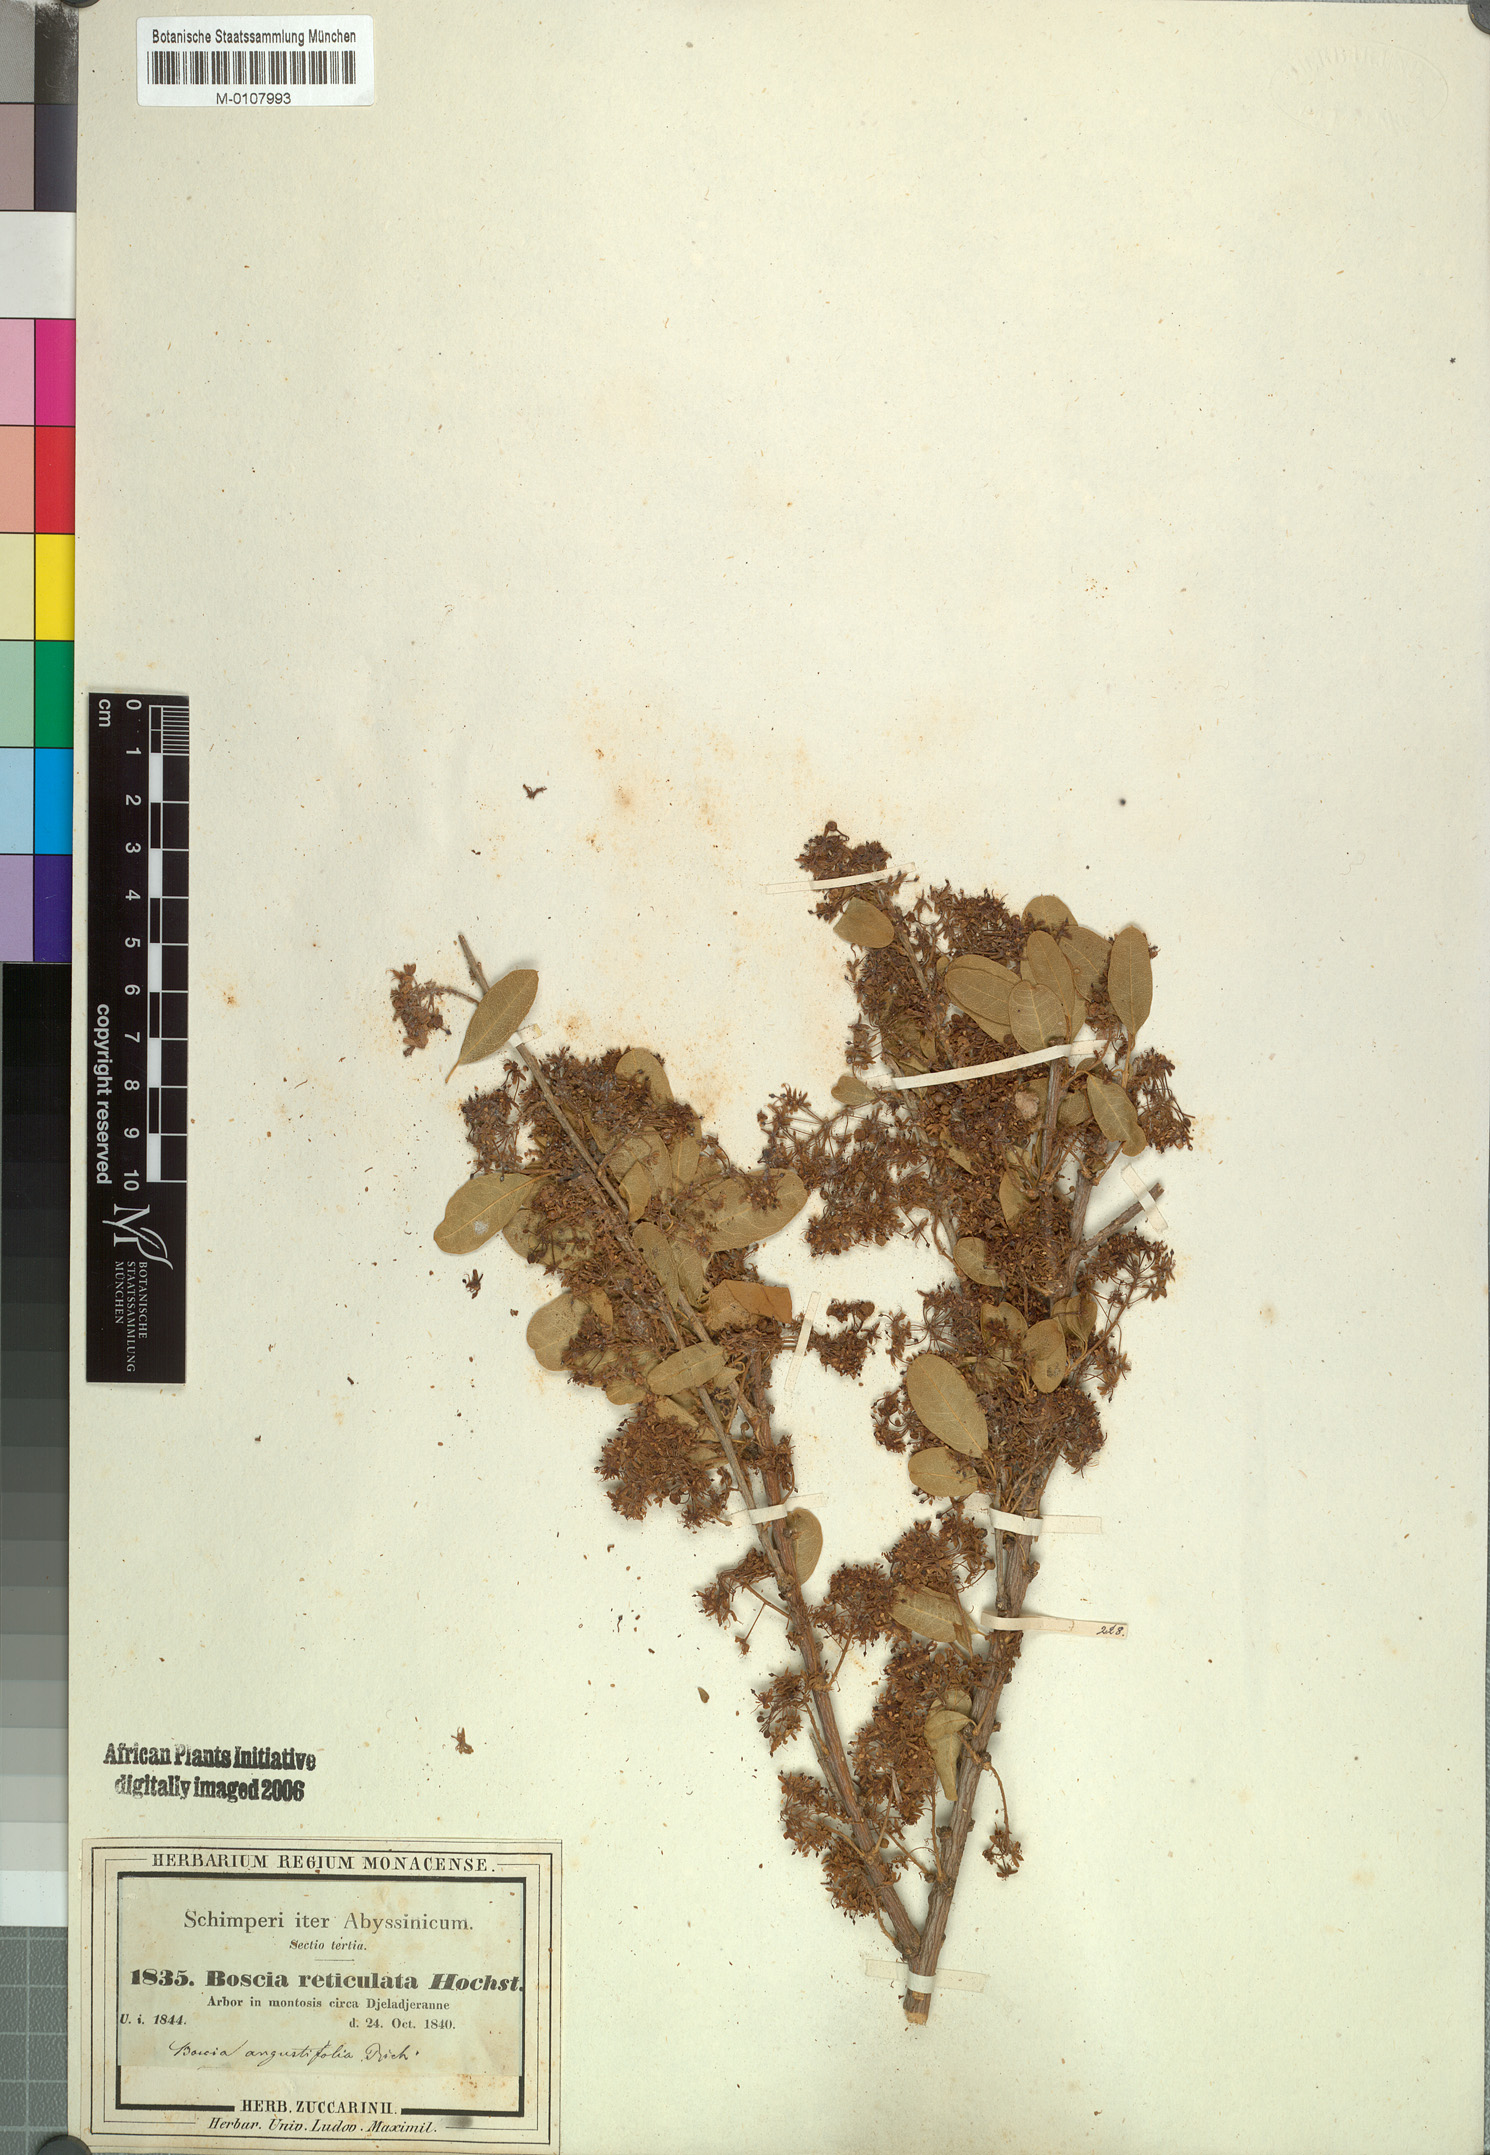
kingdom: Plantae
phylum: Tracheophyta
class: Magnoliopsida
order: Brassicales
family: Capparaceae
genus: Boscia
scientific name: Boscia angustifolia
